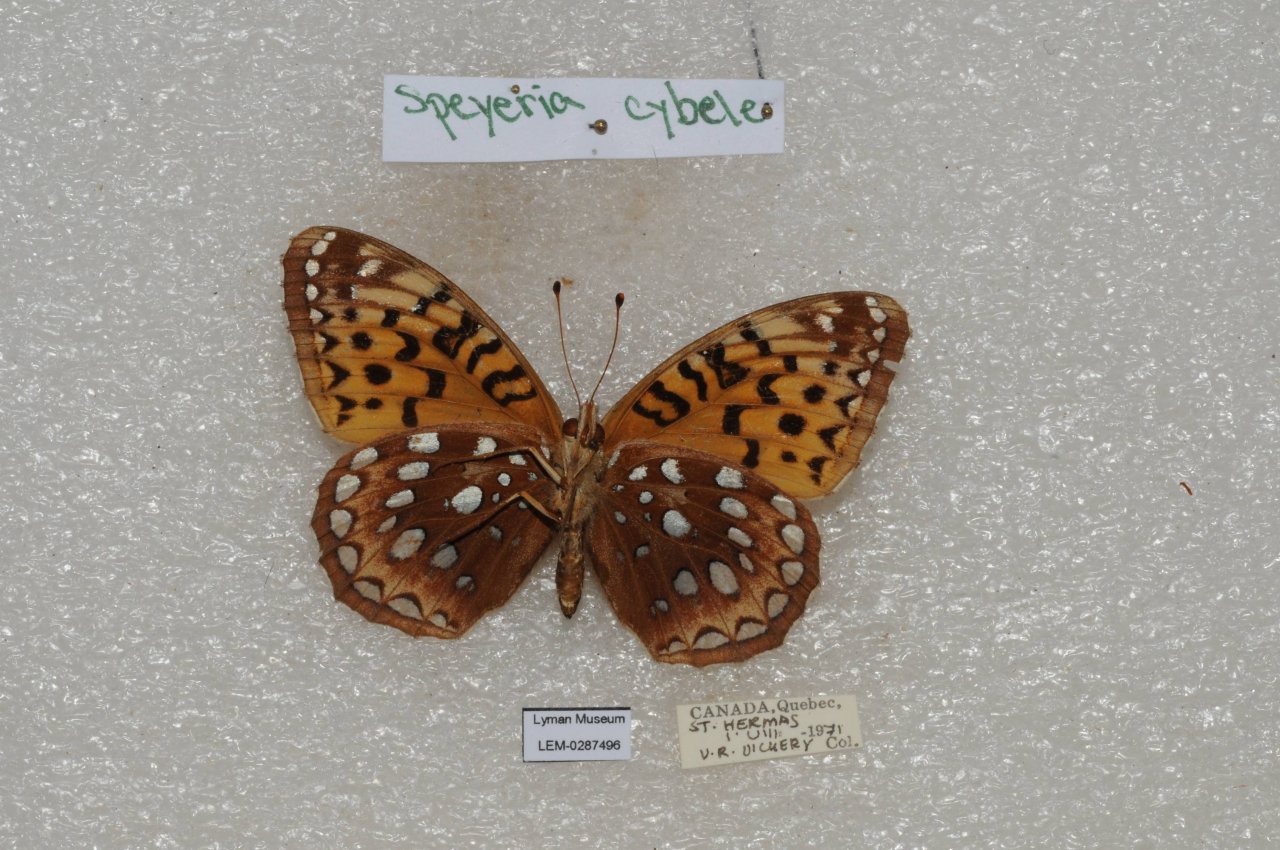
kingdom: Animalia
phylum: Arthropoda
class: Insecta
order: Lepidoptera
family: Nymphalidae
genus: Speyeria
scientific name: Speyeria cybele
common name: Great Spangled Fritillary
